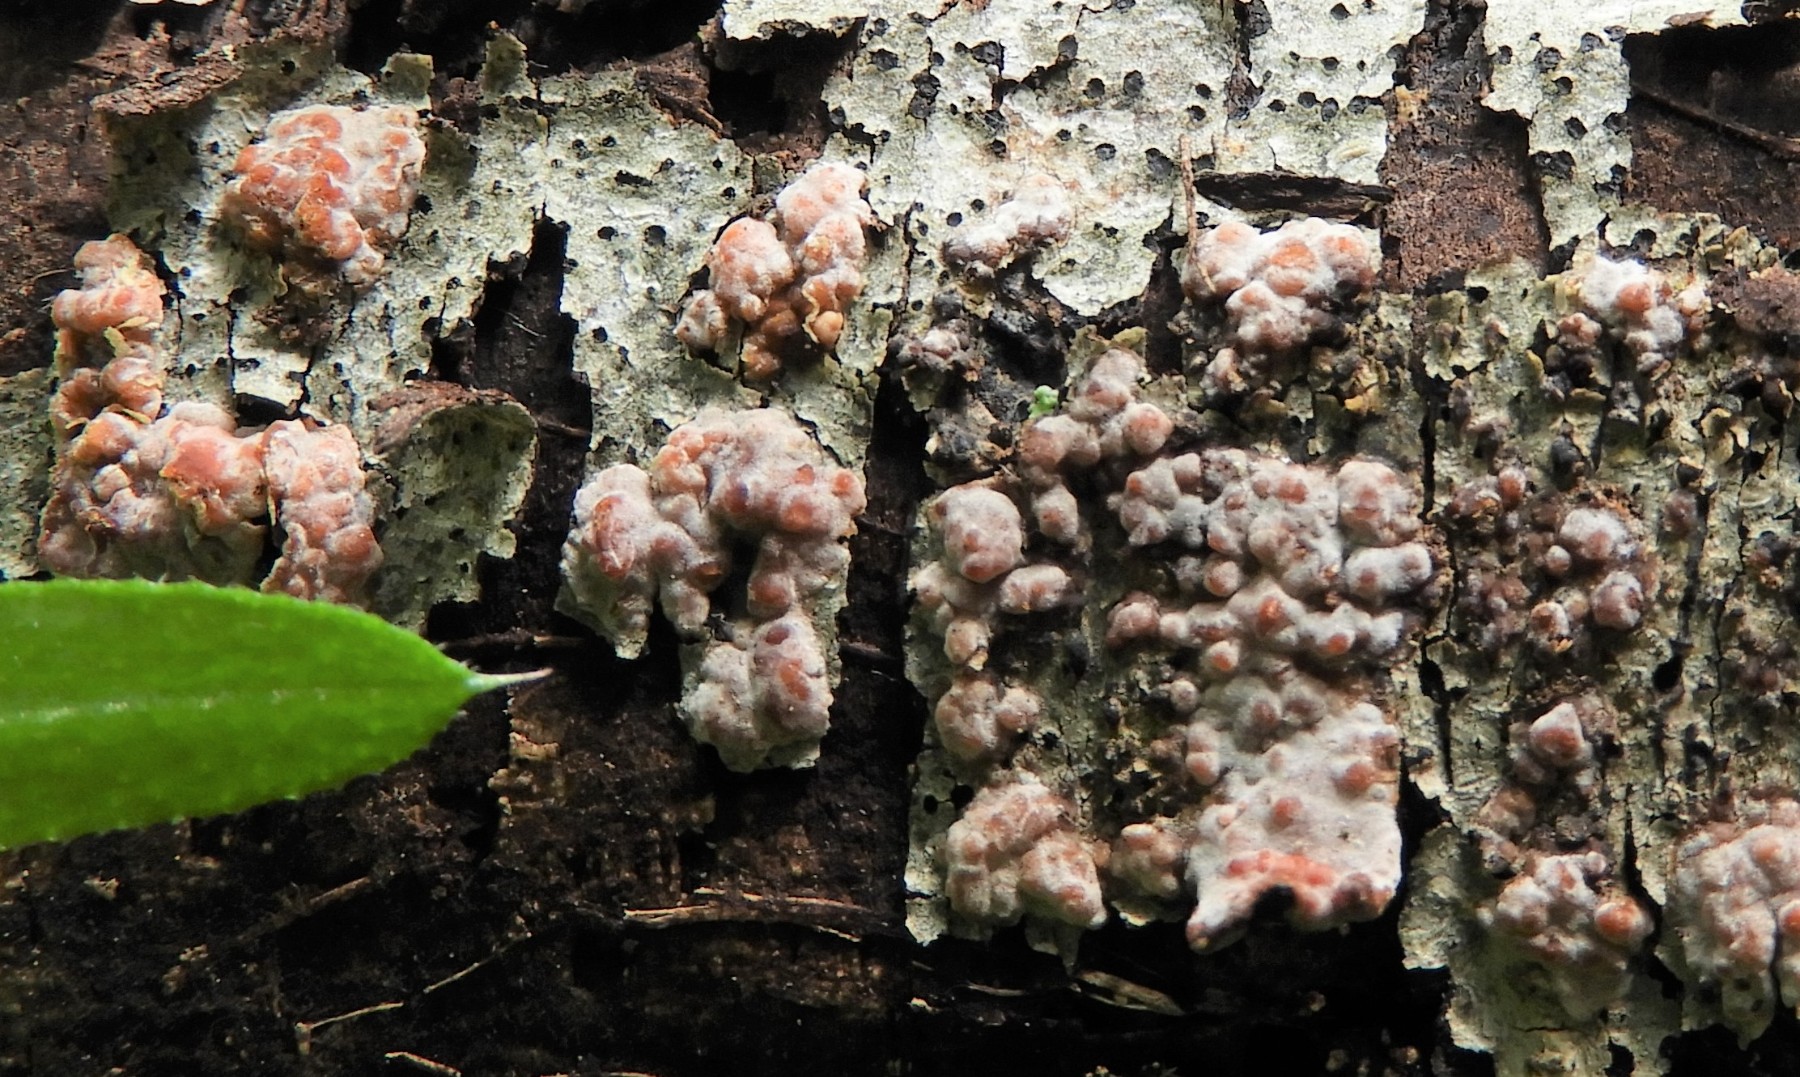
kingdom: Fungi
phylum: Basidiomycota
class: Agaricomycetes
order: Russulales
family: Peniophoraceae
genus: Peniophora
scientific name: Peniophora polygonia
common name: polygon-voksskind
